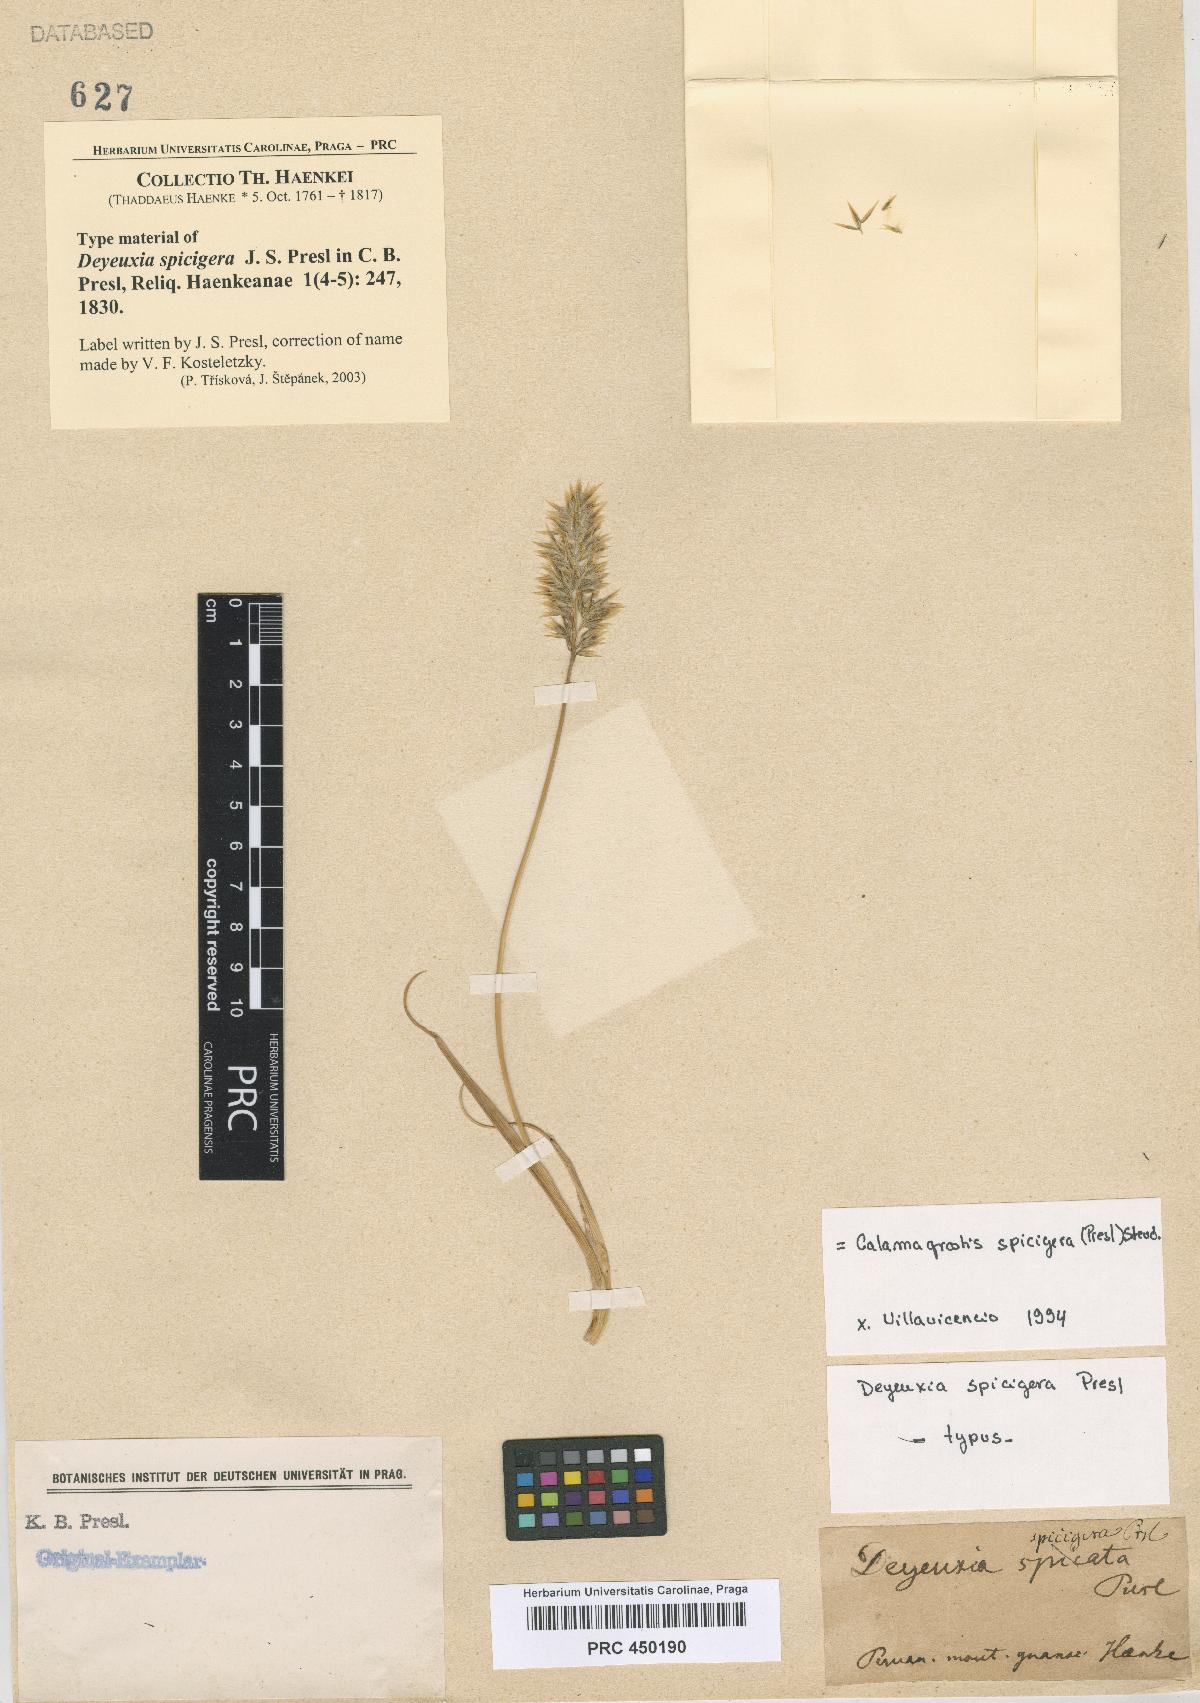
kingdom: Plantae
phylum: Tracheophyta
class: Liliopsida
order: Poales
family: Poaceae
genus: Cinnagrostis
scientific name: Cinnagrostis spicigera
